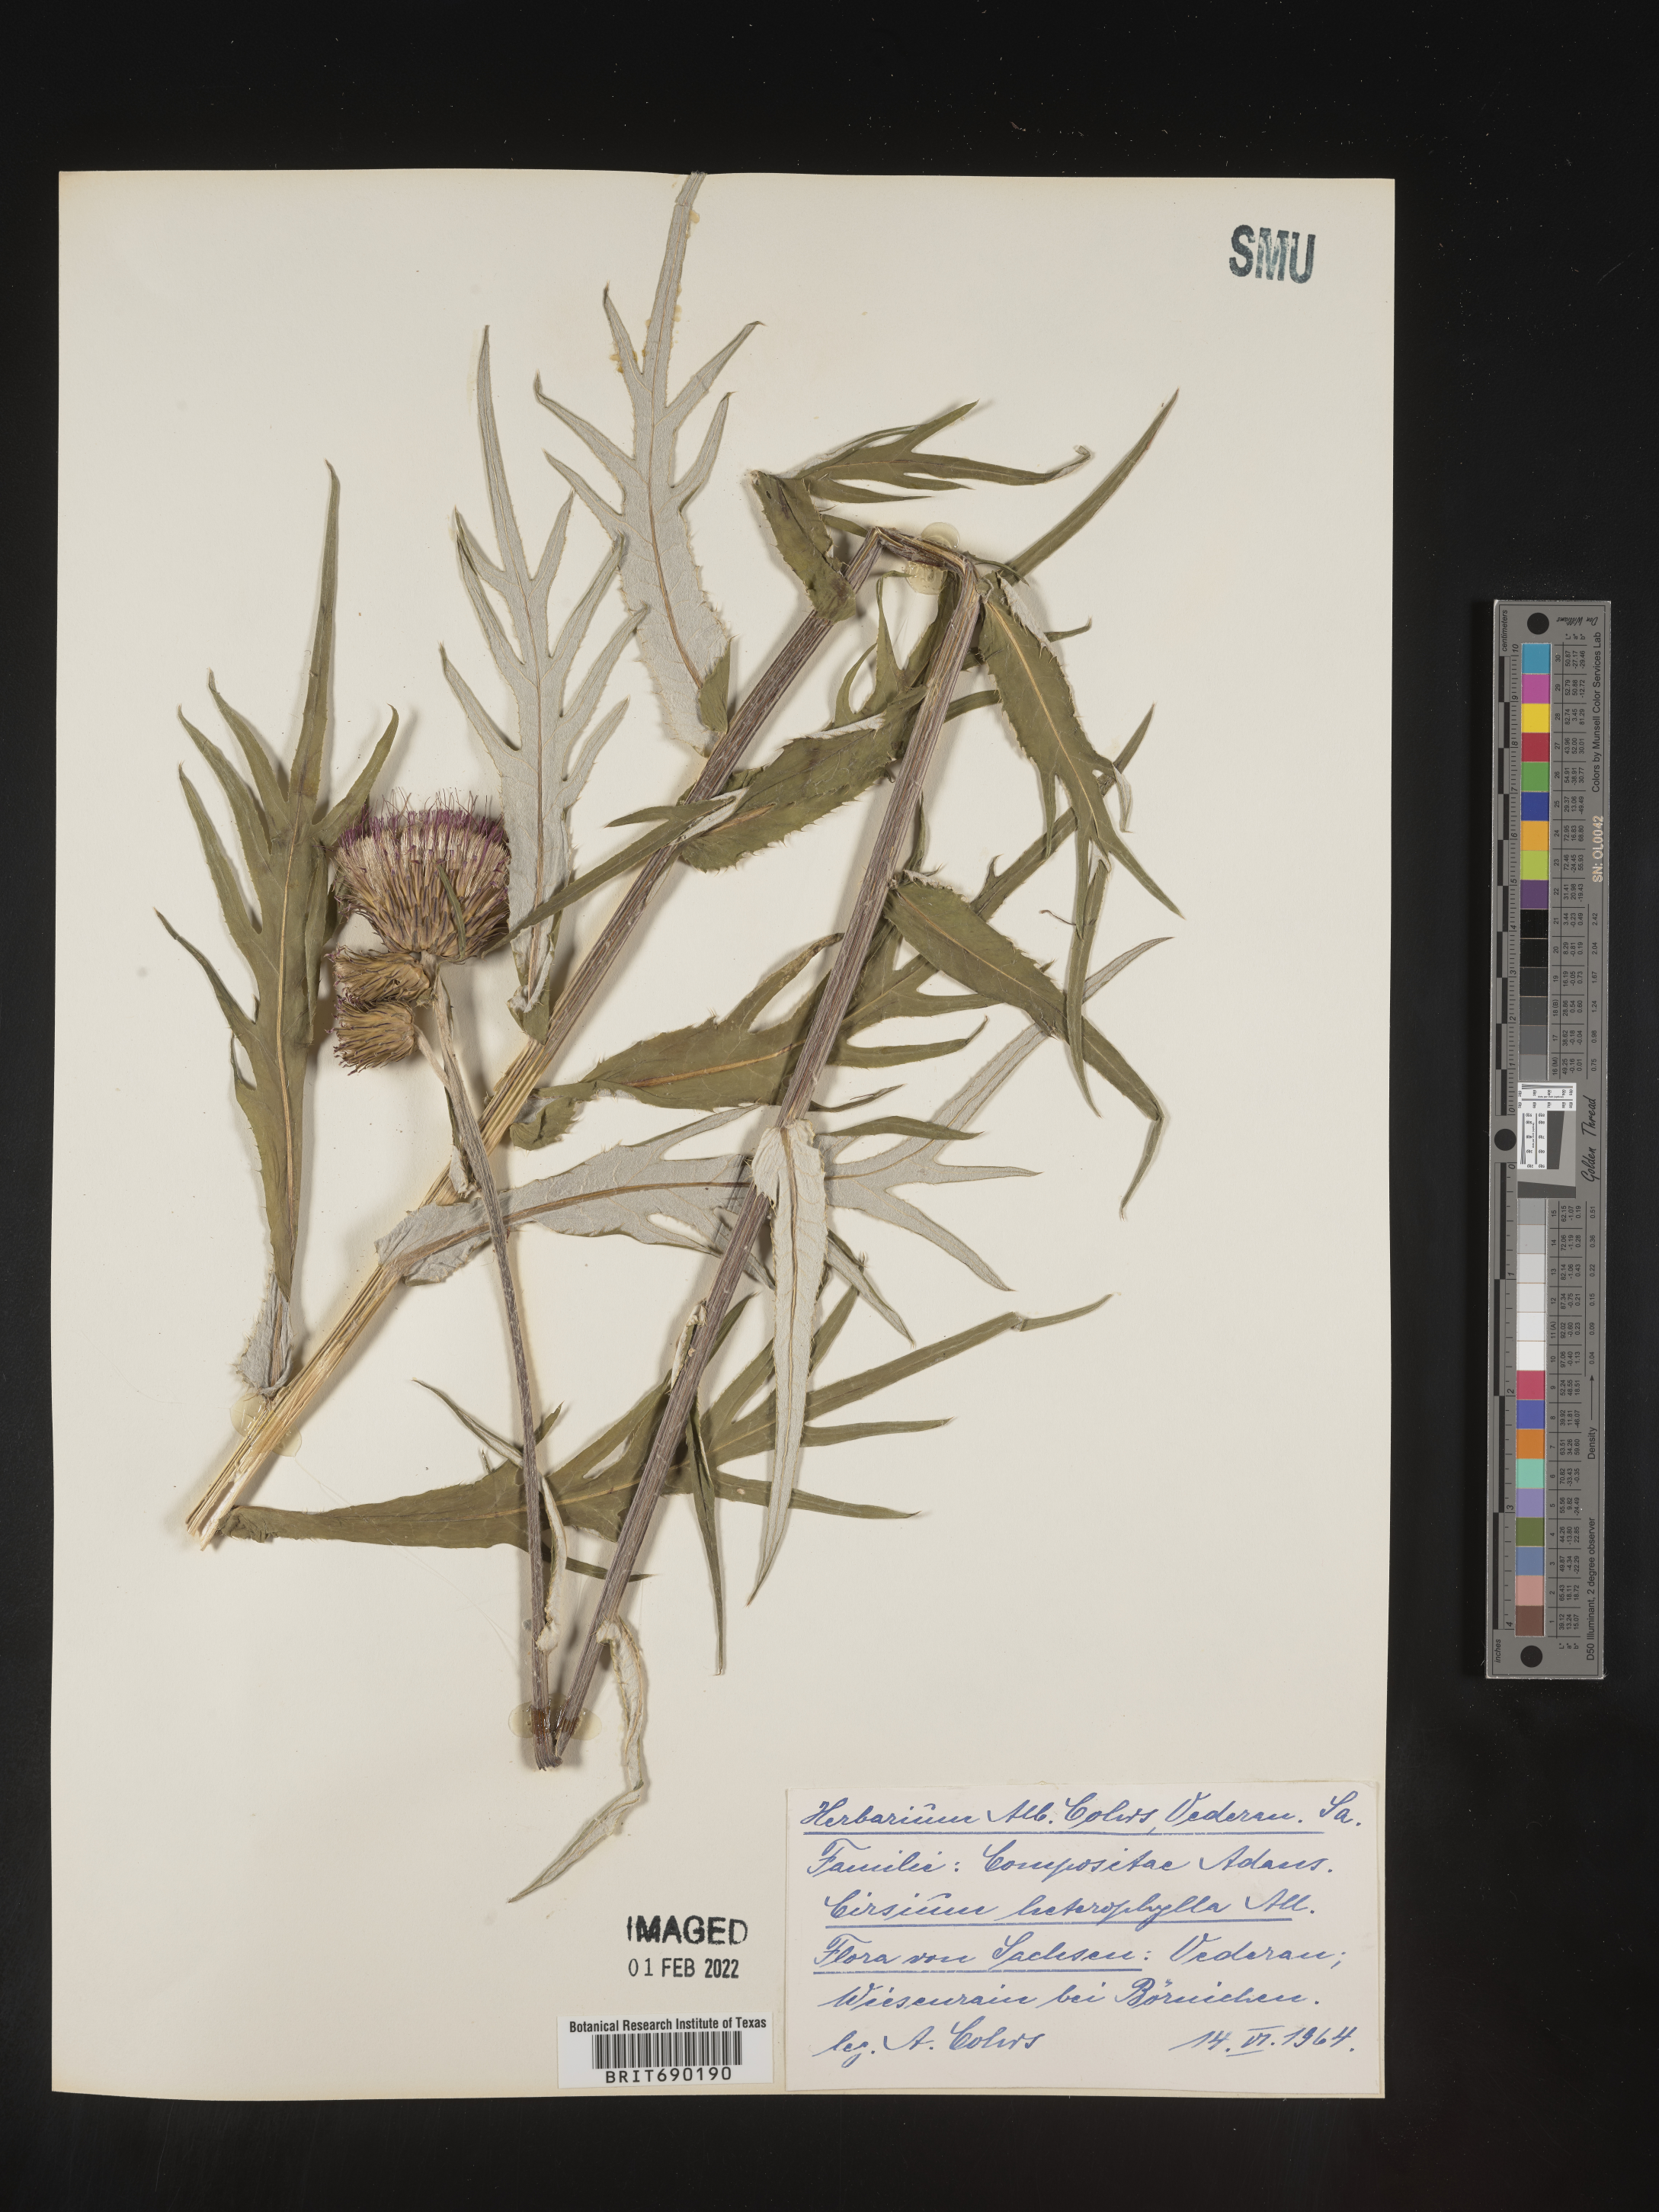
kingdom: Plantae
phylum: Tracheophyta
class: Magnoliopsida
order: Asterales
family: Asteraceae
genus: Cirsium
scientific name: Cirsium
